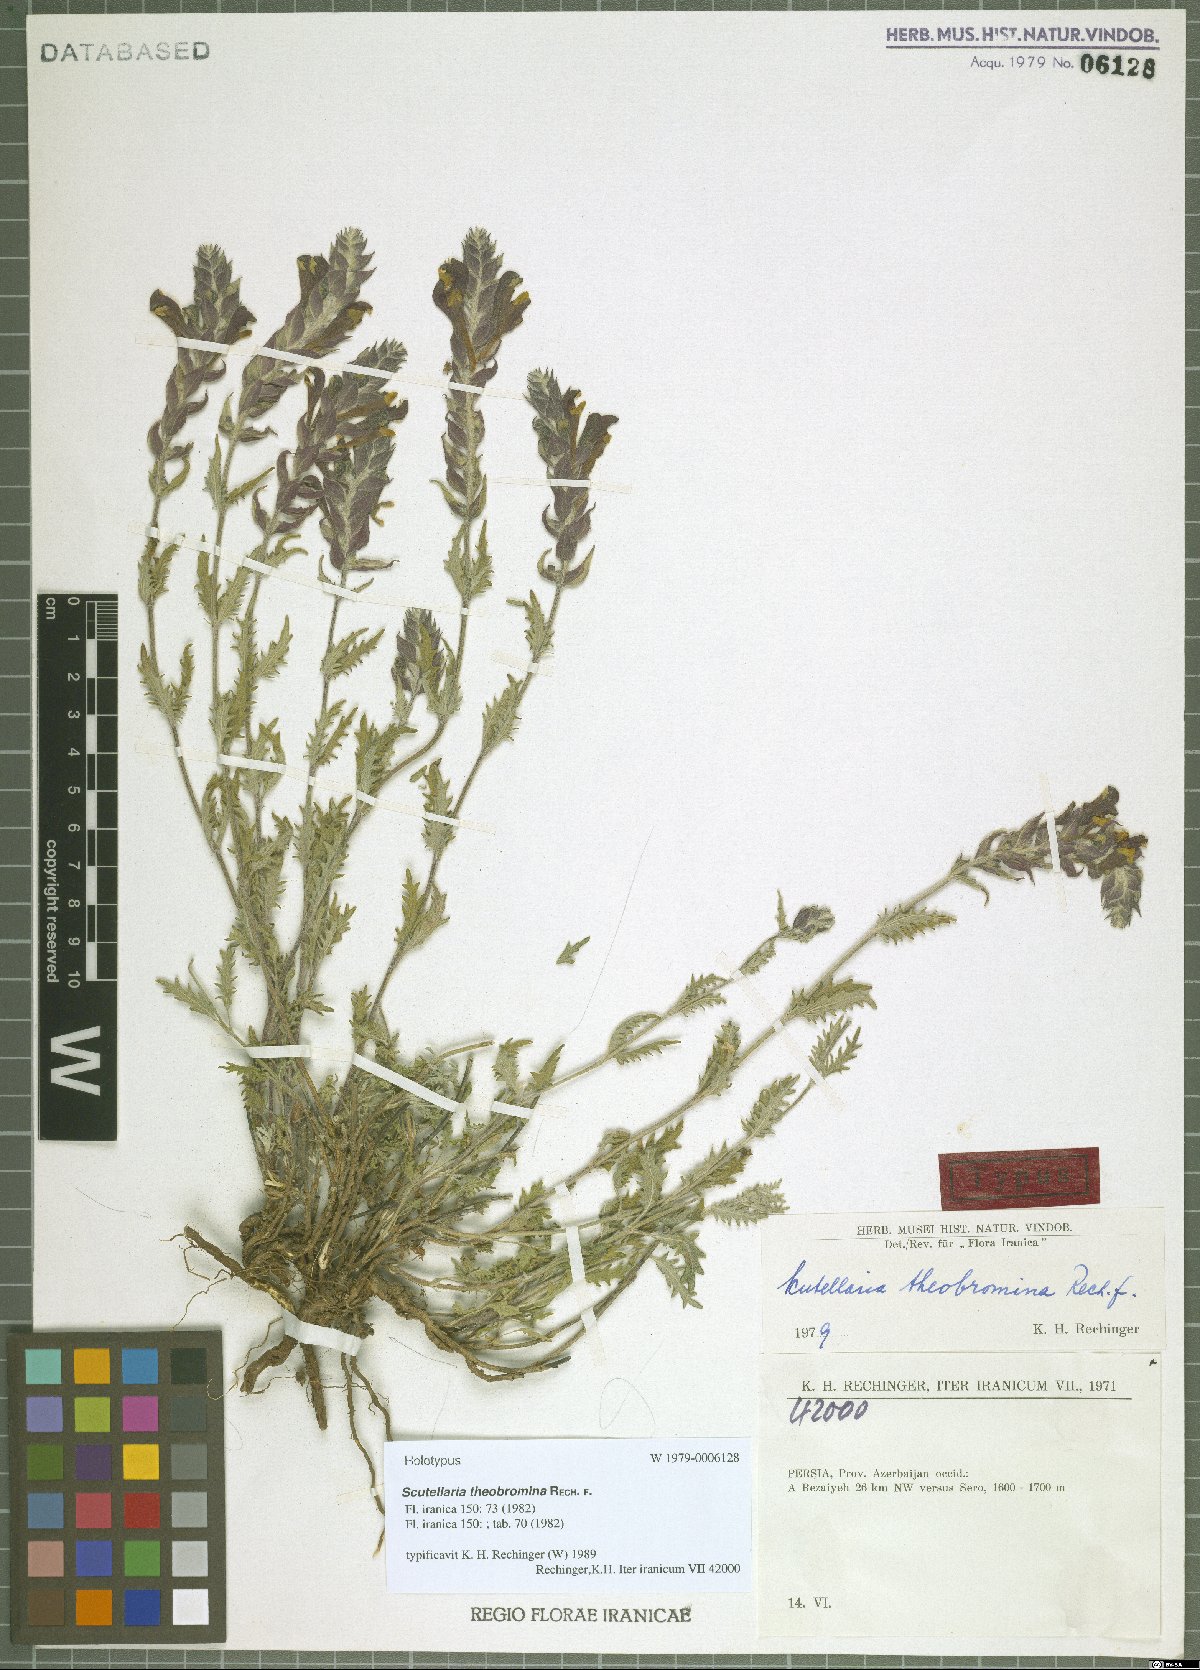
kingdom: Plantae
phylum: Tracheophyta
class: Magnoliopsida
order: Lamiales
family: Lamiaceae
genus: Scutellaria
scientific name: Scutellaria theobromina
